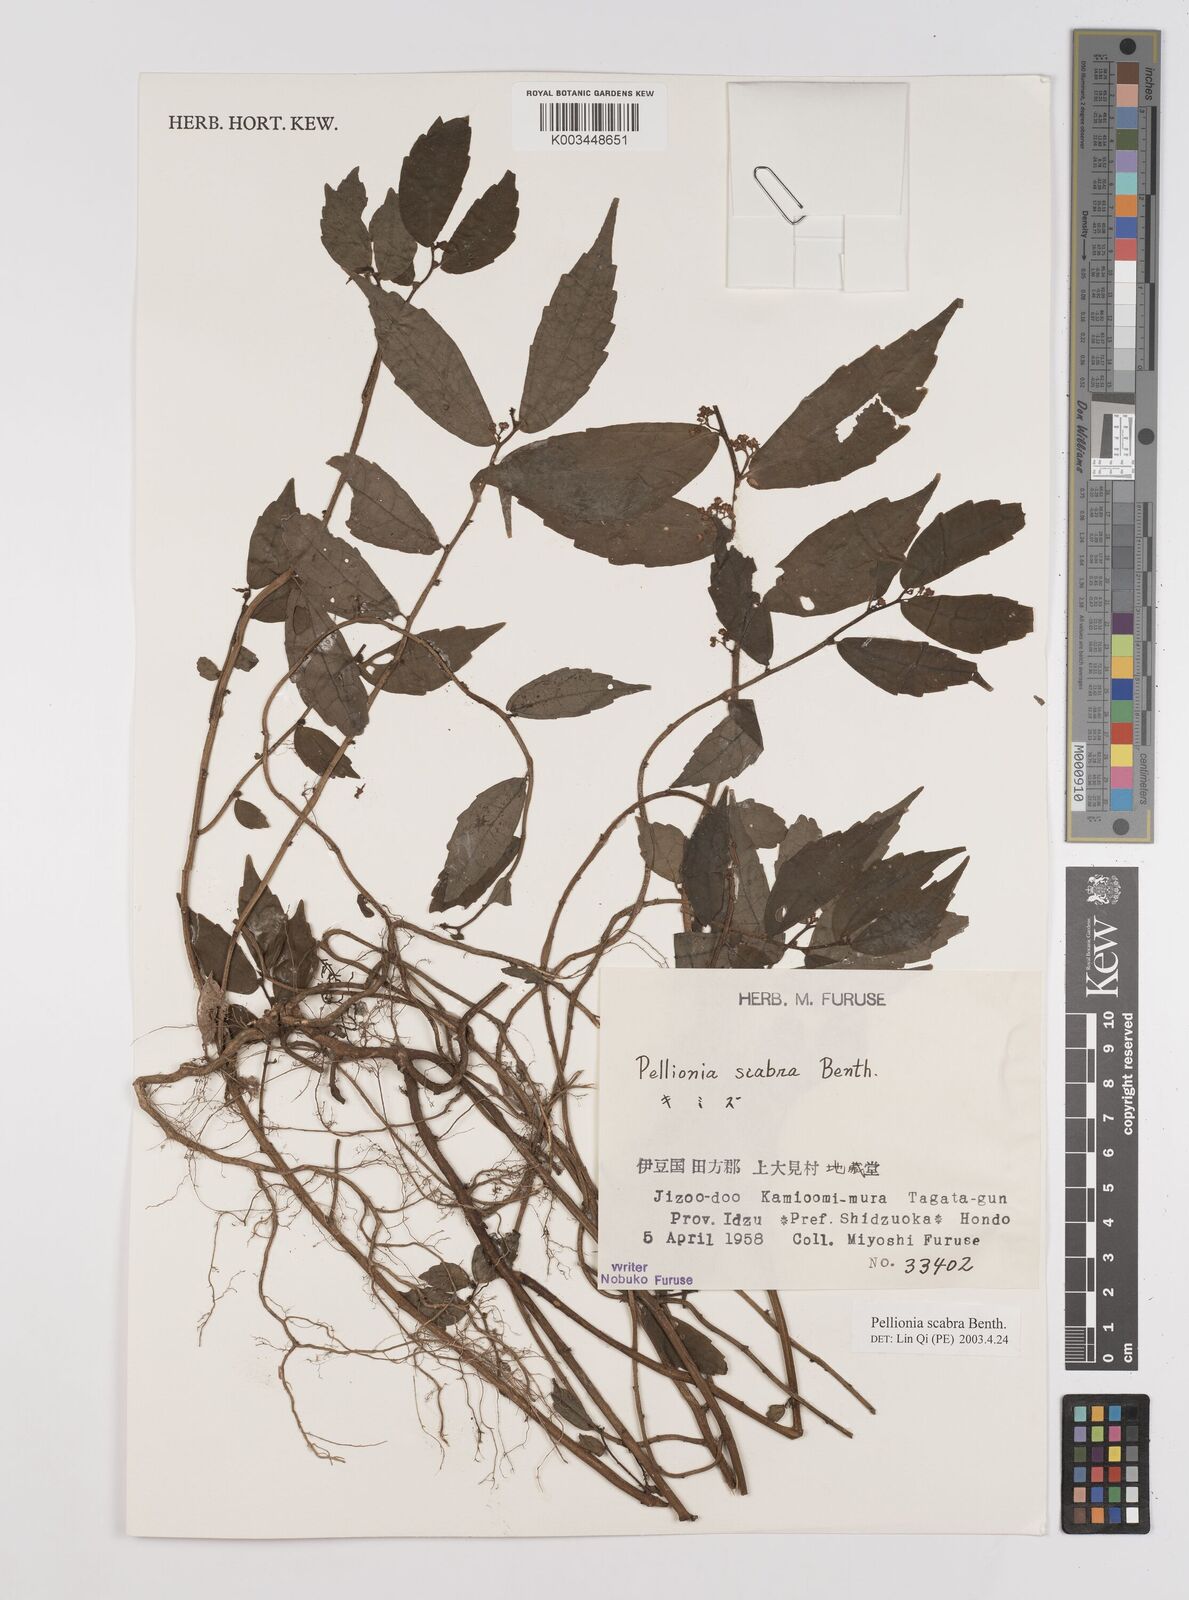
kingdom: Plantae
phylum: Tracheophyta
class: Magnoliopsida
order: Rosales
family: Urticaceae
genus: Elatostema
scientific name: Elatostema
